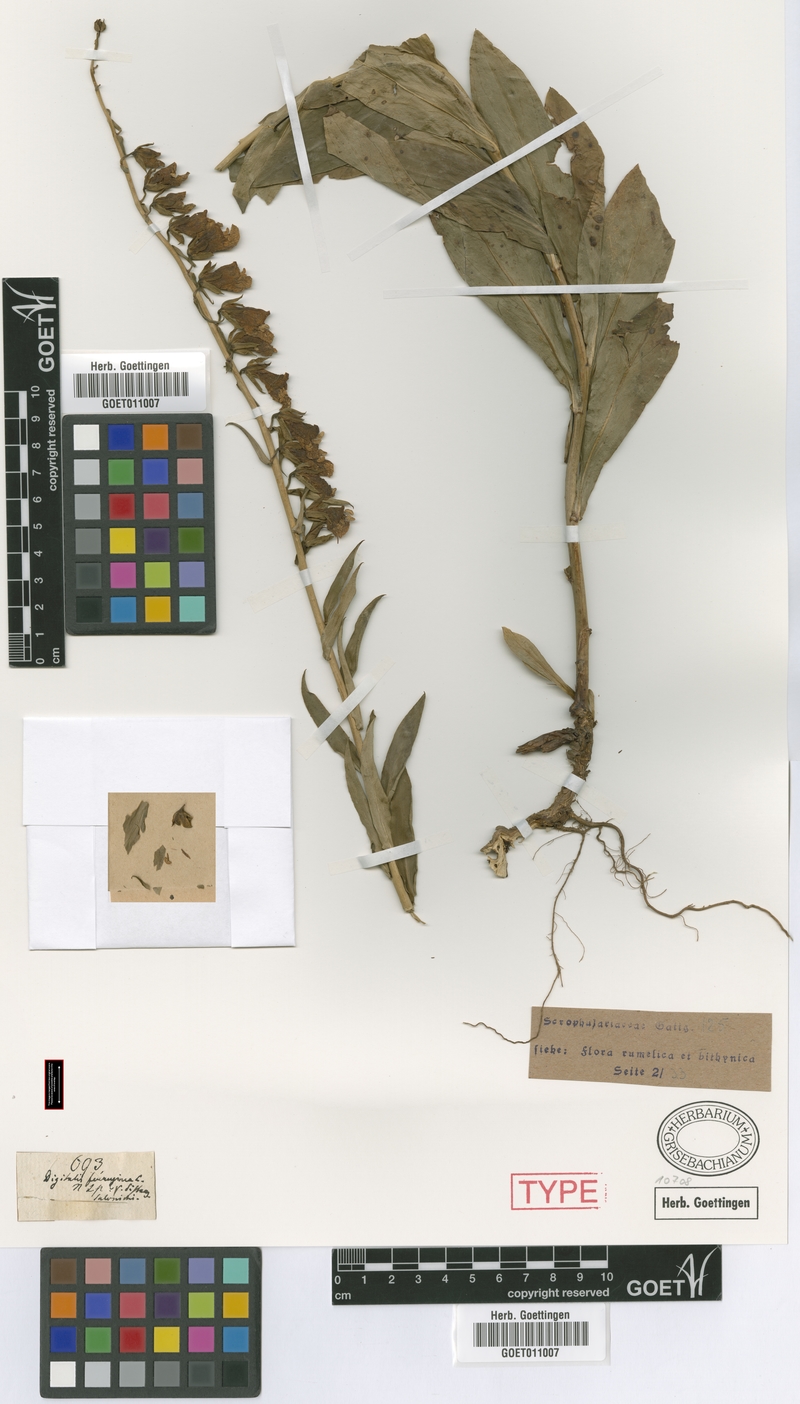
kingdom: Plantae
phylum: Tracheophyta
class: Magnoliopsida
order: Lamiales
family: Plantaginaceae
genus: Digitalis
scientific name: Digitalis laevigata
